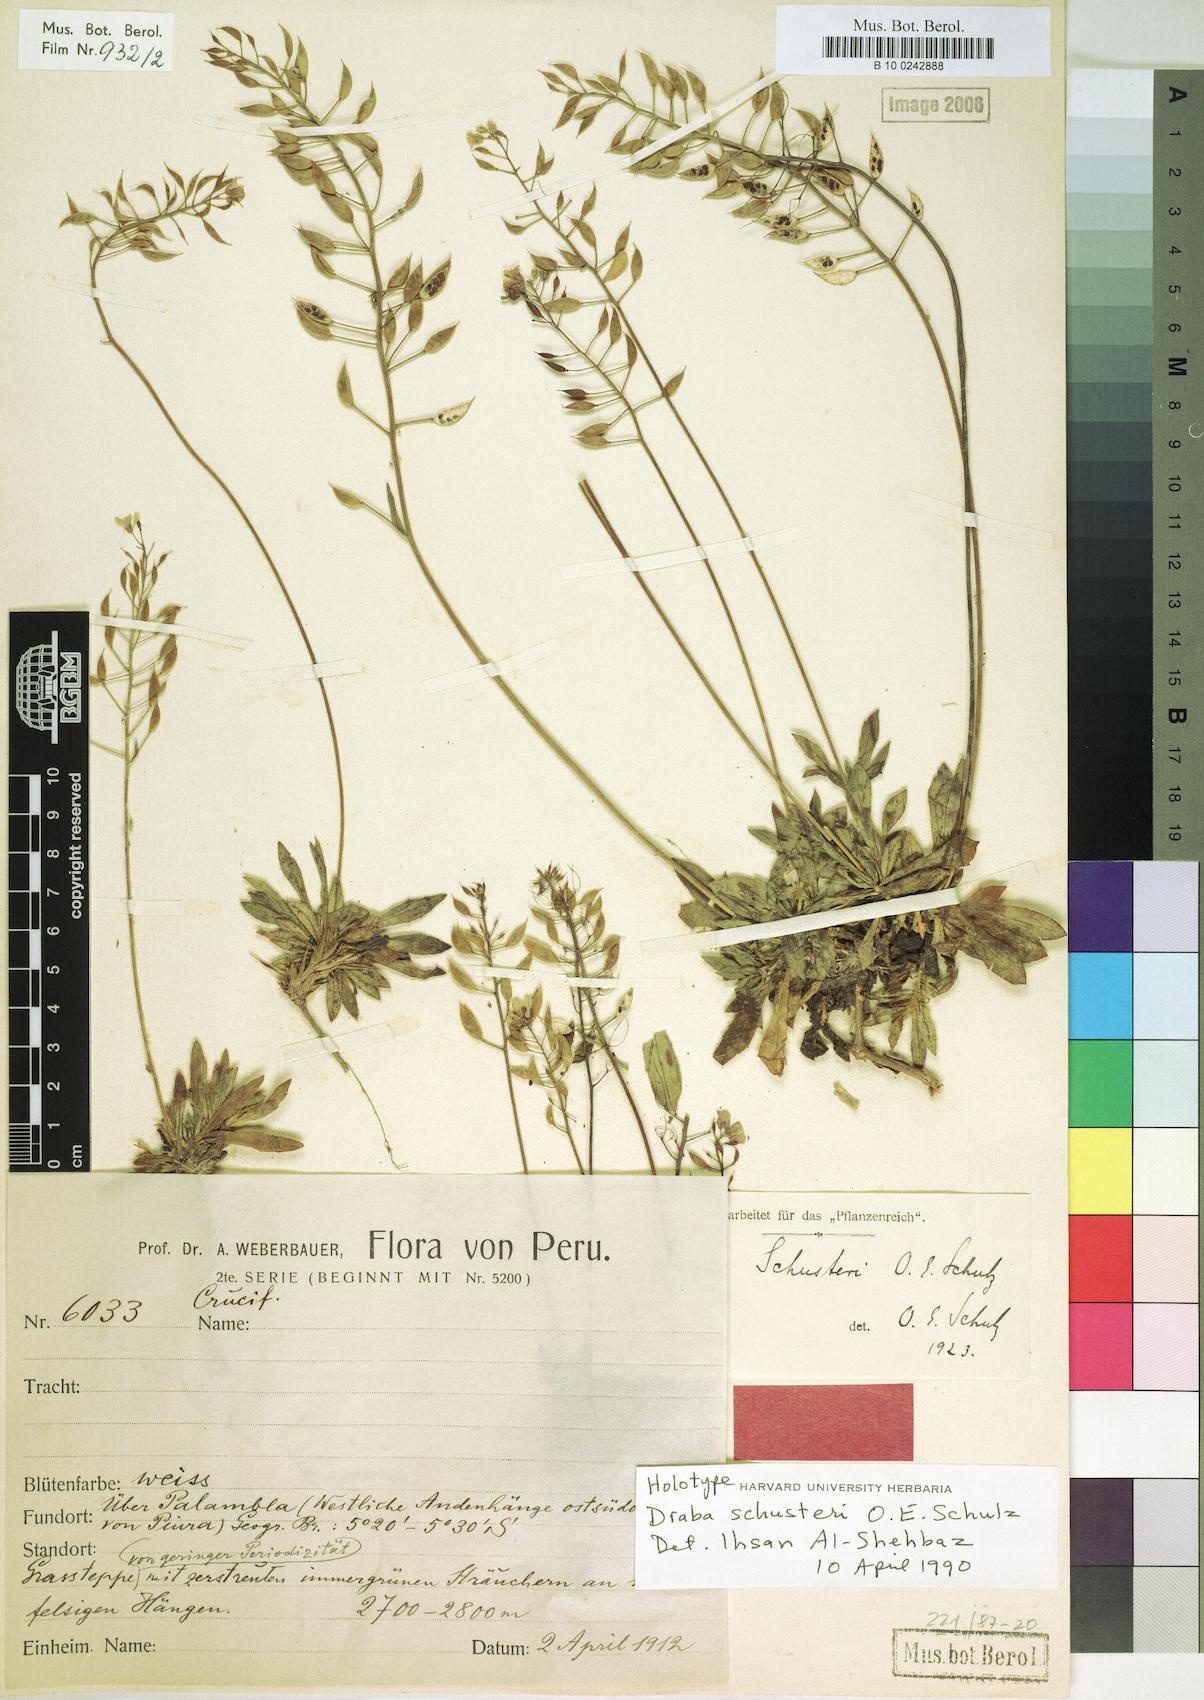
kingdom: Plantae
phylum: Tracheophyta
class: Magnoliopsida
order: Brassicales
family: Brassicaceae
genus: Draba
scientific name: Draba schusteri
